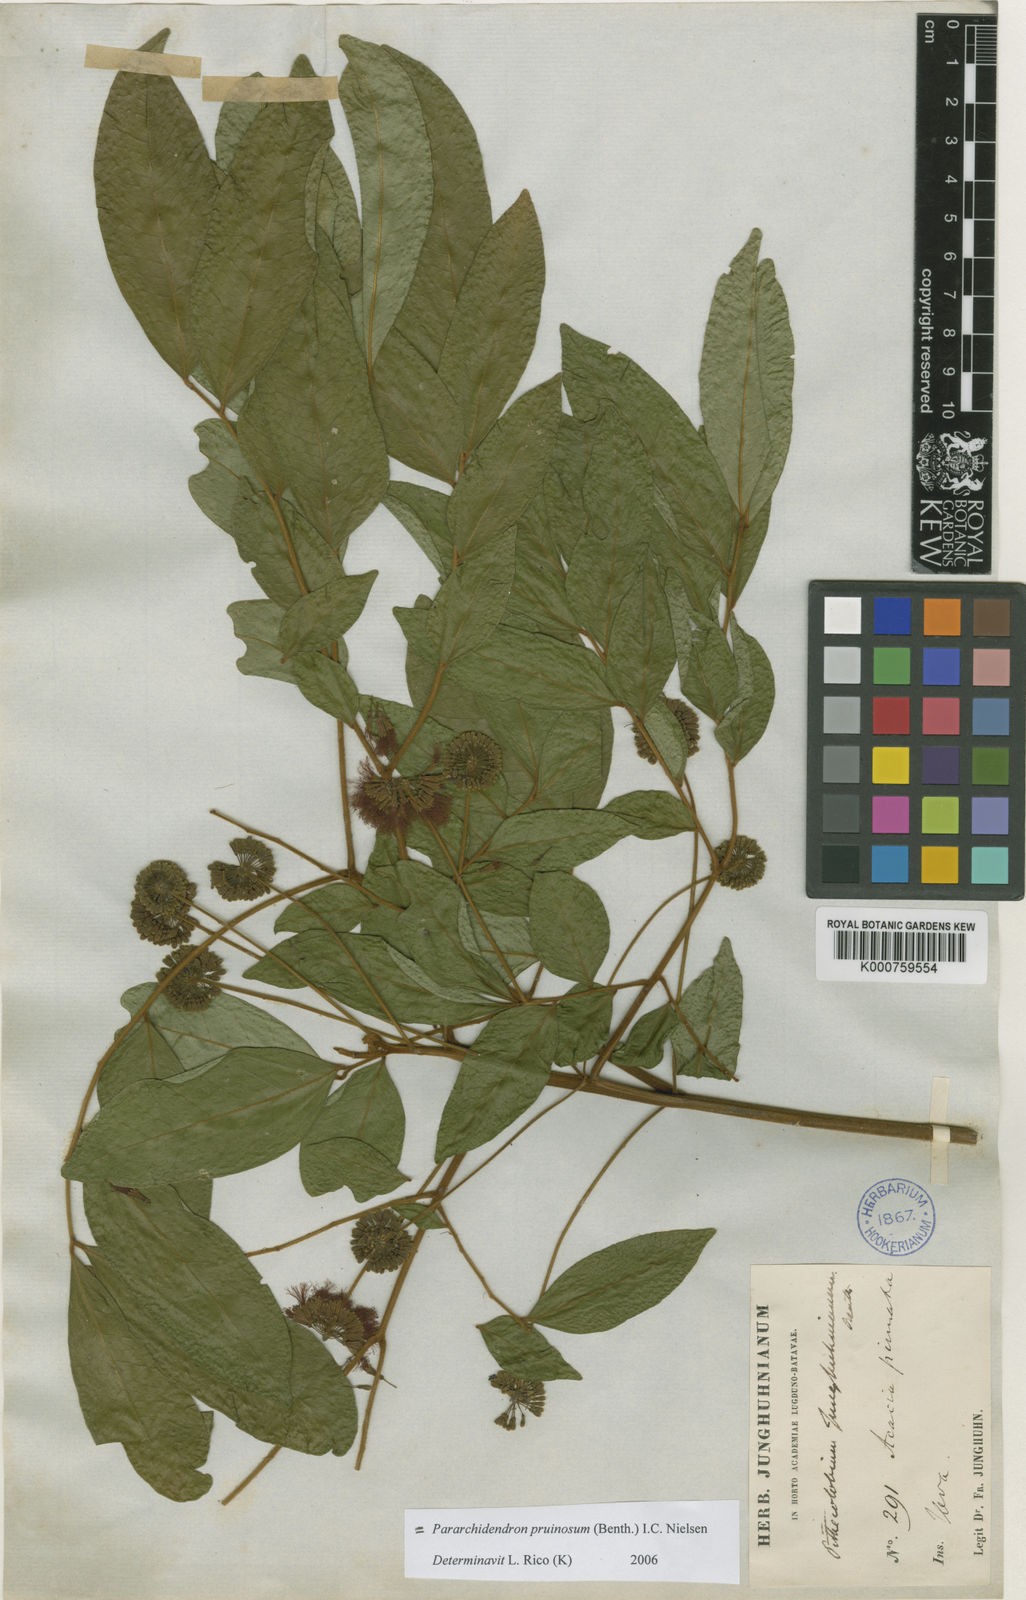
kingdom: Plantae
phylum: Tracheophyta
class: Magnoliopsida
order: Fabales
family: Fabaceae
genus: Pararchidendron
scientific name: Pararchidendron pruinosum
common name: Tulip siris
